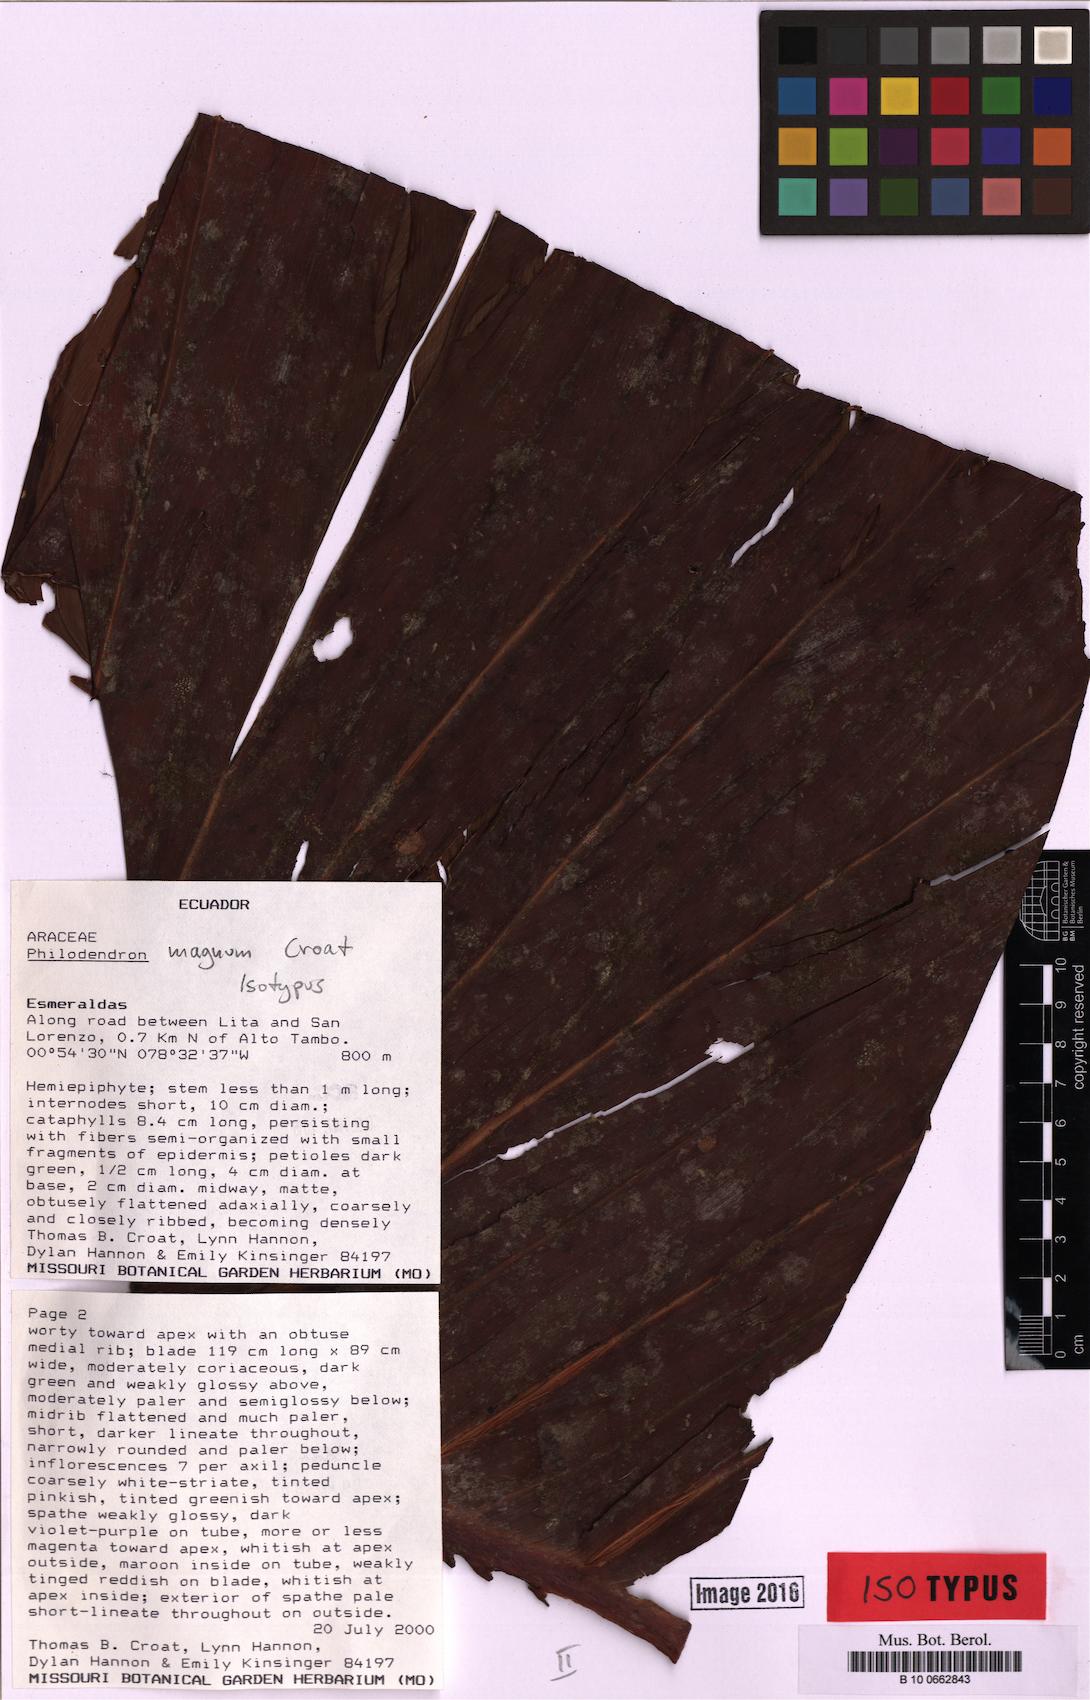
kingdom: Plantae
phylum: Tracheophyta
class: Liliopsida
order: Alismatales
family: Araceae
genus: Philodendron
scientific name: Philodendron magnum
